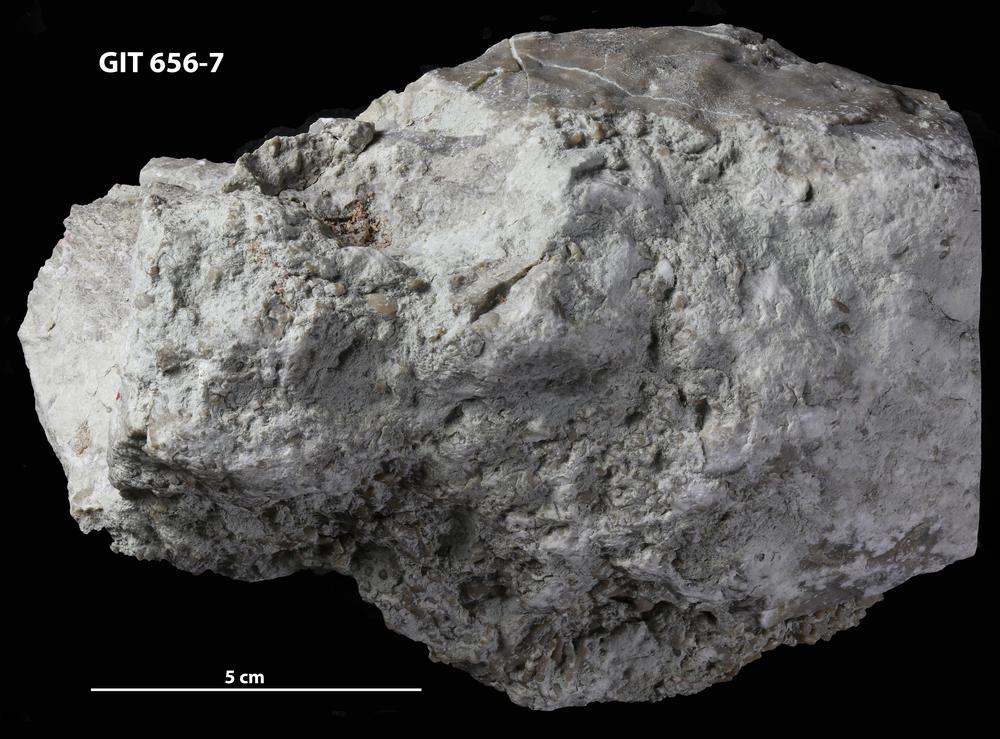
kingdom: Animalia
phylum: Cnidaria
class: Anthozoa
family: Auloporidae
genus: Aulopora
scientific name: Aulopora
